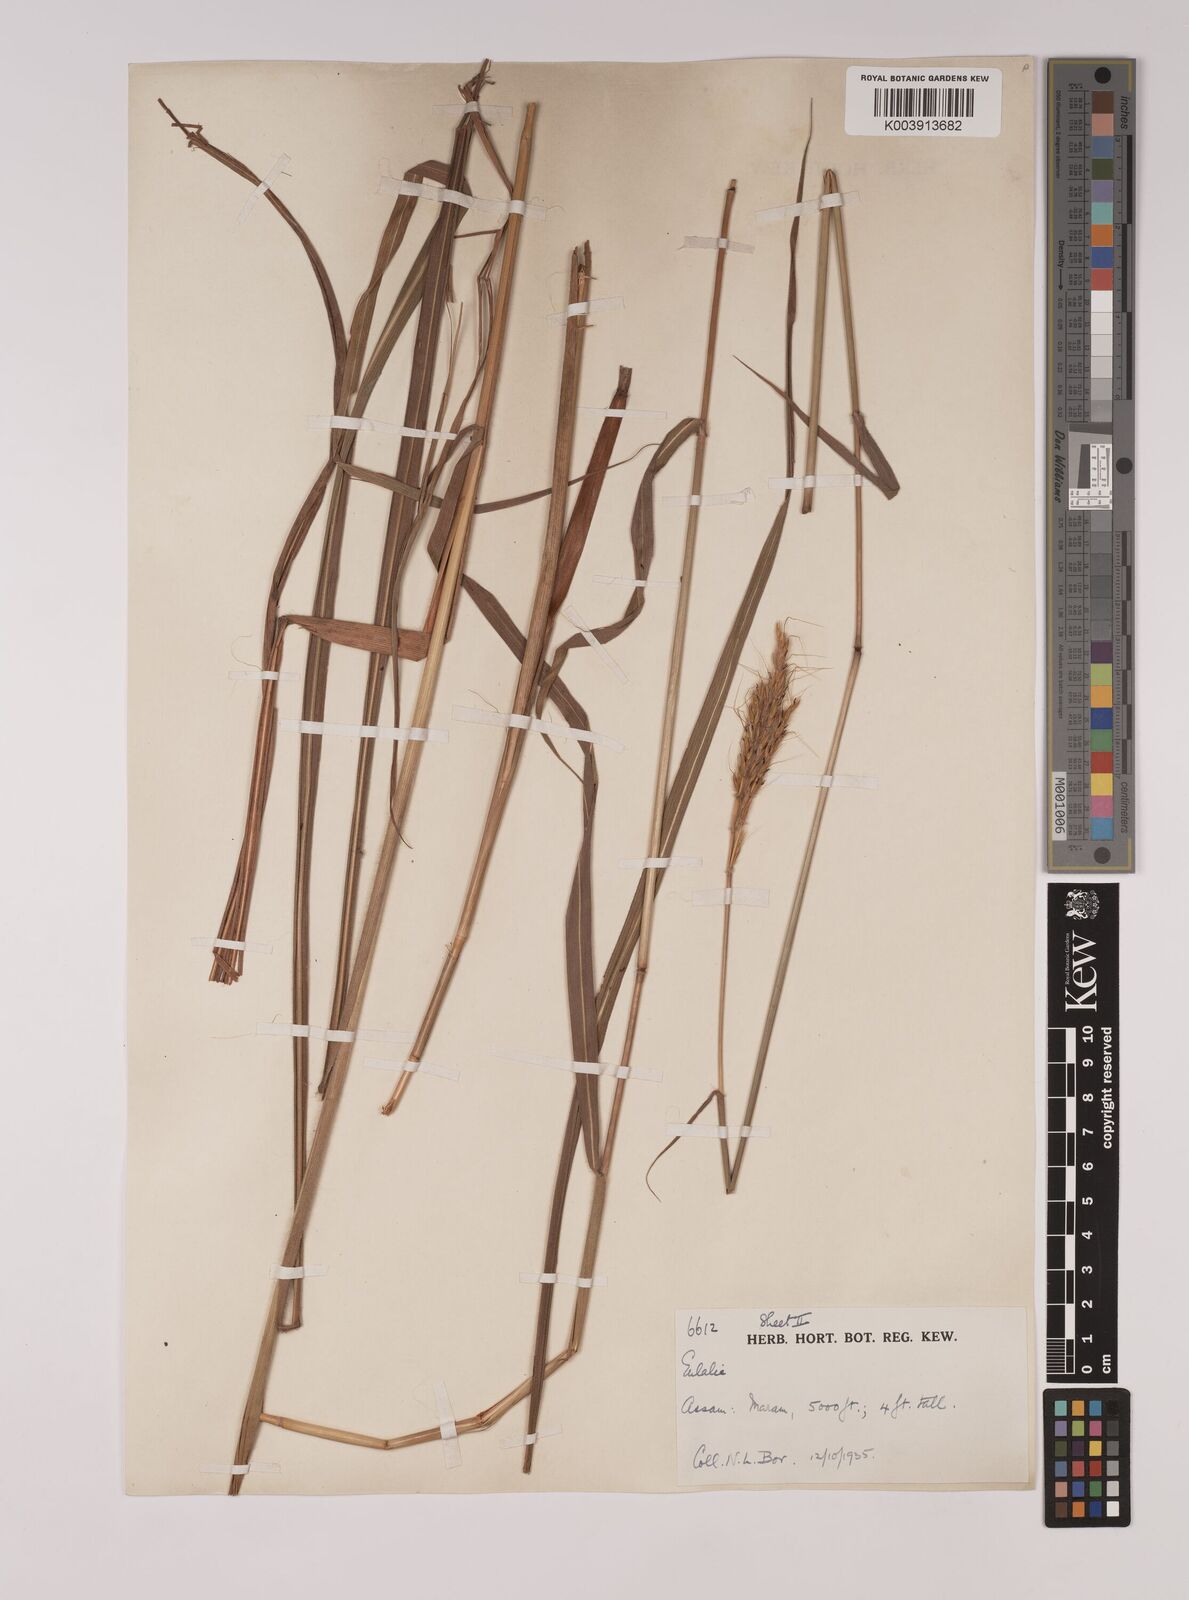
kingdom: Plantae
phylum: Tracheophyta
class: Liliopsida
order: Poales
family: Poaceae
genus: Pseudopogonatherum
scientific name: Pseudopogonatherum quadrinerve
